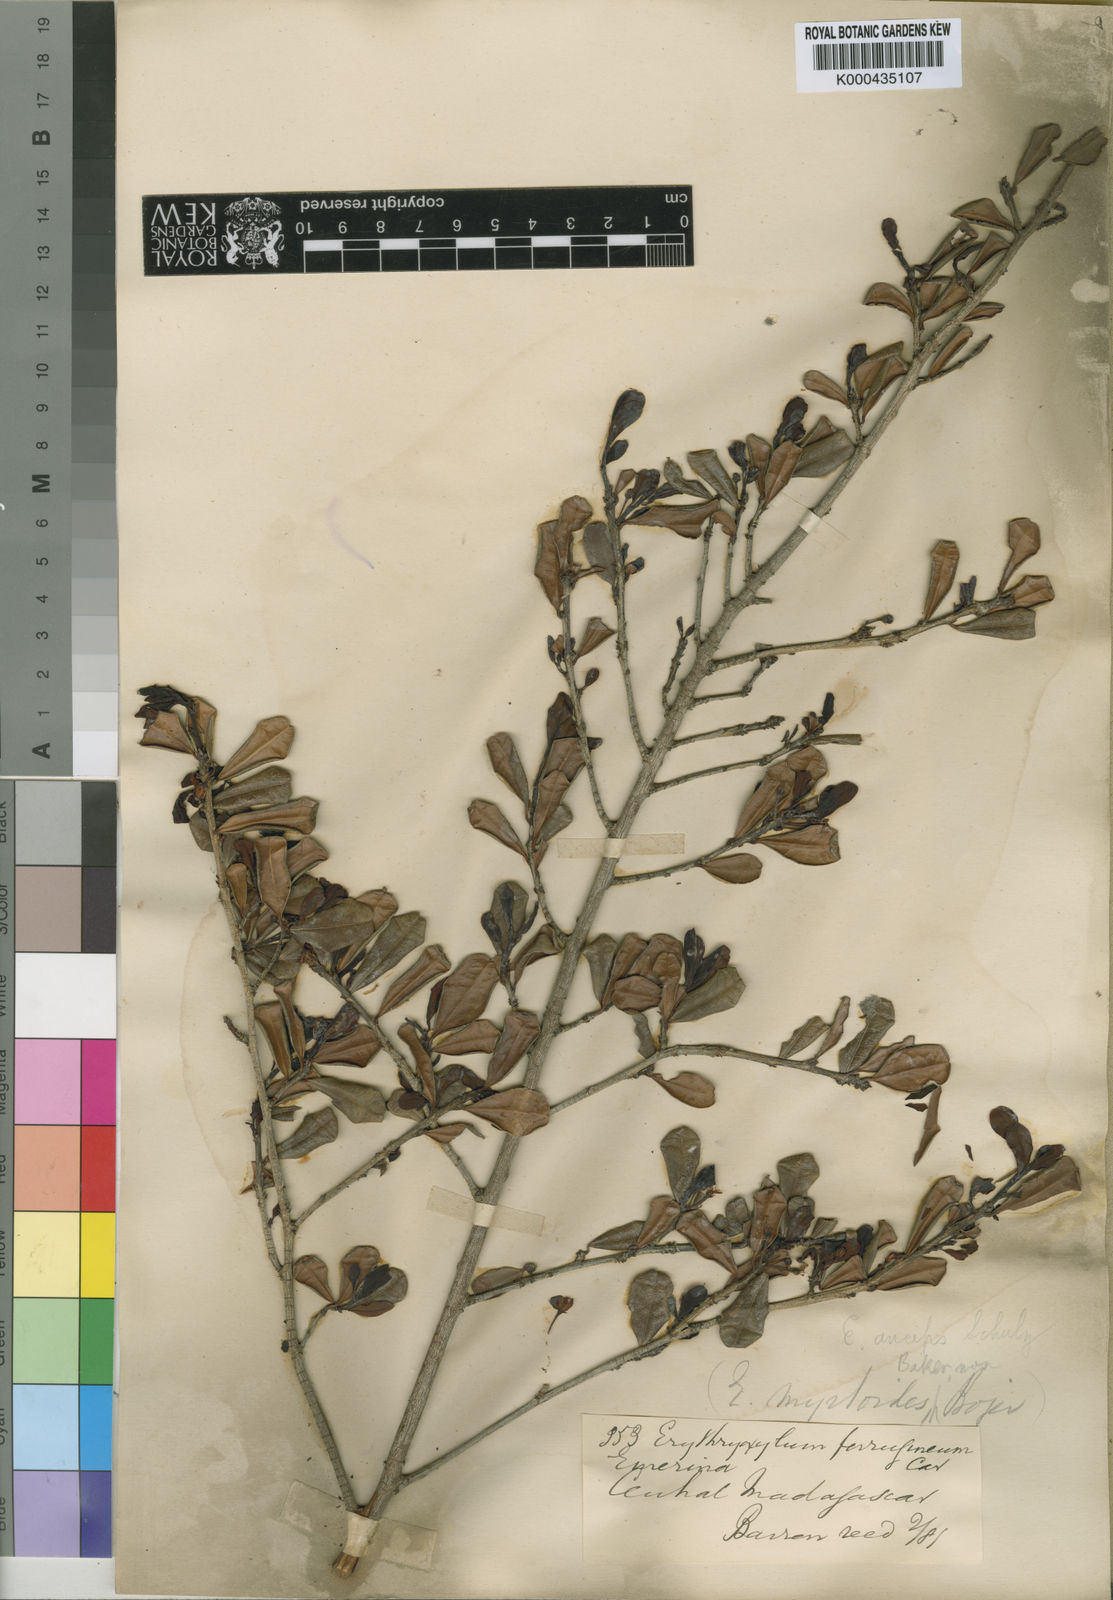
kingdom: Plantae
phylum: Tracheophyta
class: Magnoliopsida
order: Malpighiales
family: Erythroxylaceae
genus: Erythroxylum
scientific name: Erythroxylum ferrugineum
